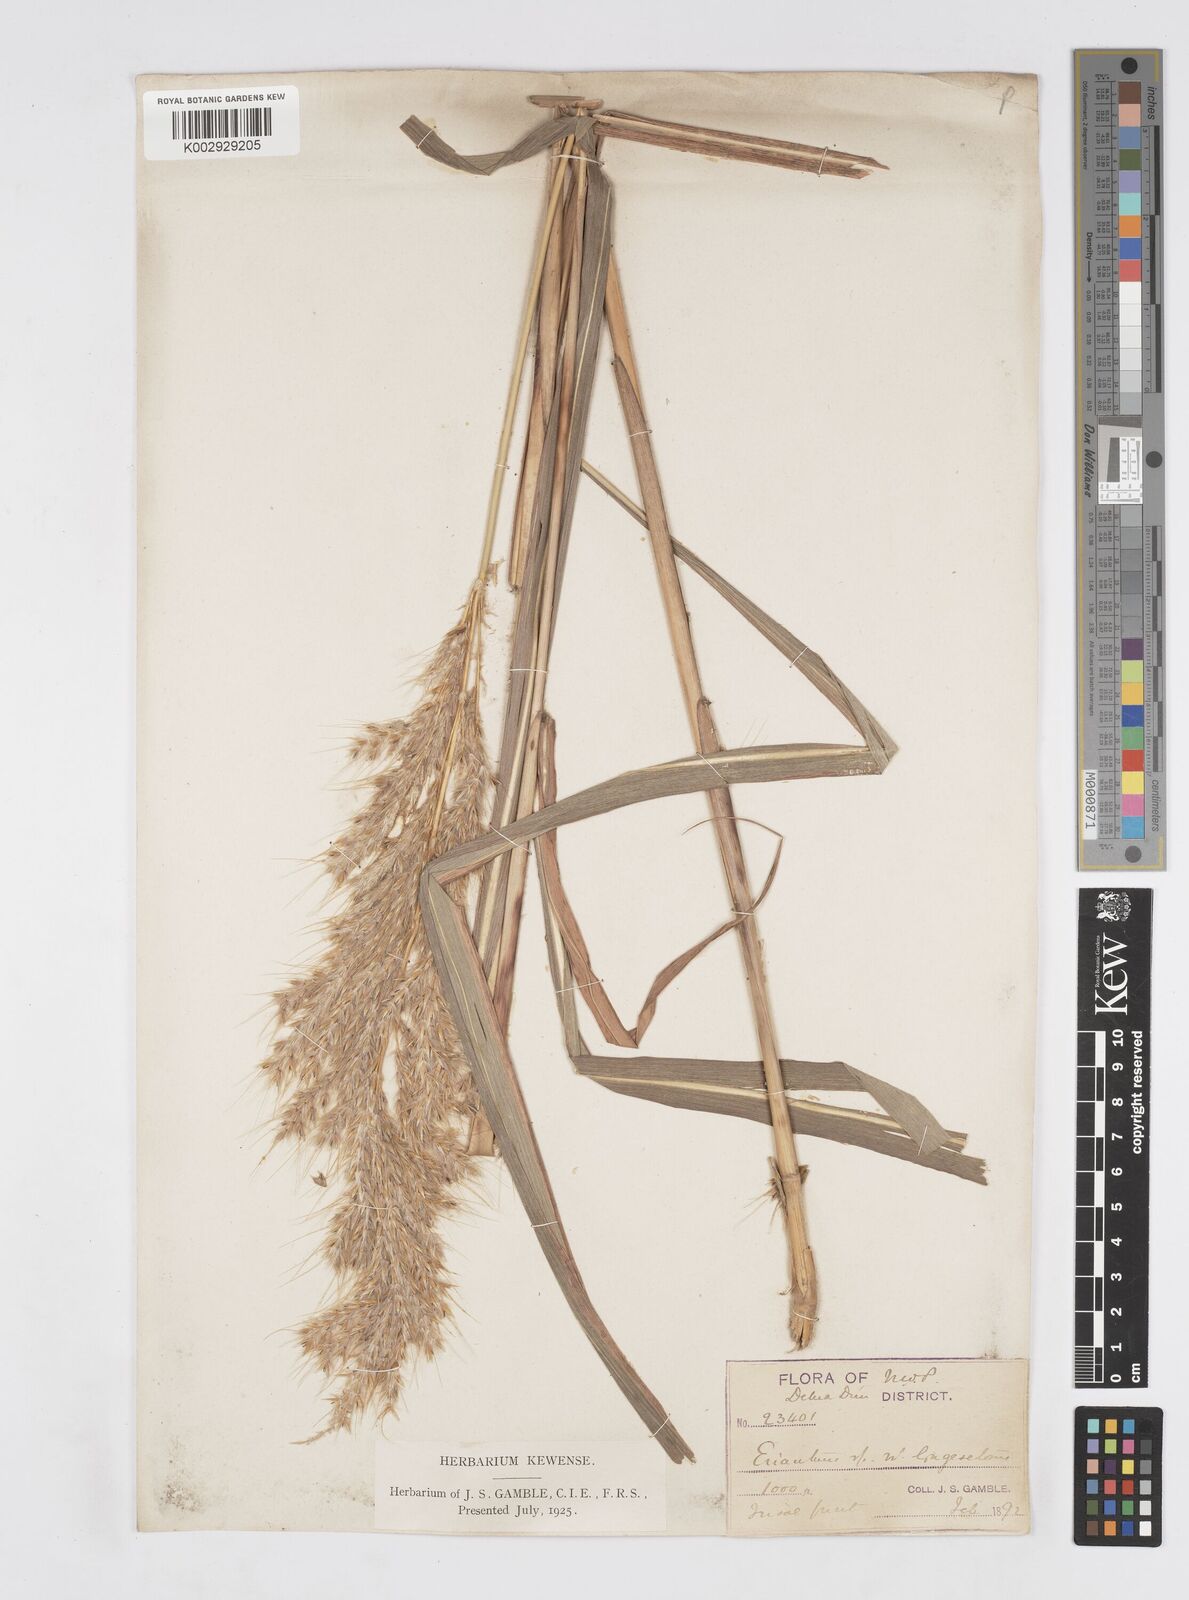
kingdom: Plantae
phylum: Tracheophyta
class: Liliopsida
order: Poales
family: Poaceae
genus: Melinis
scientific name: Melinis longiseta
